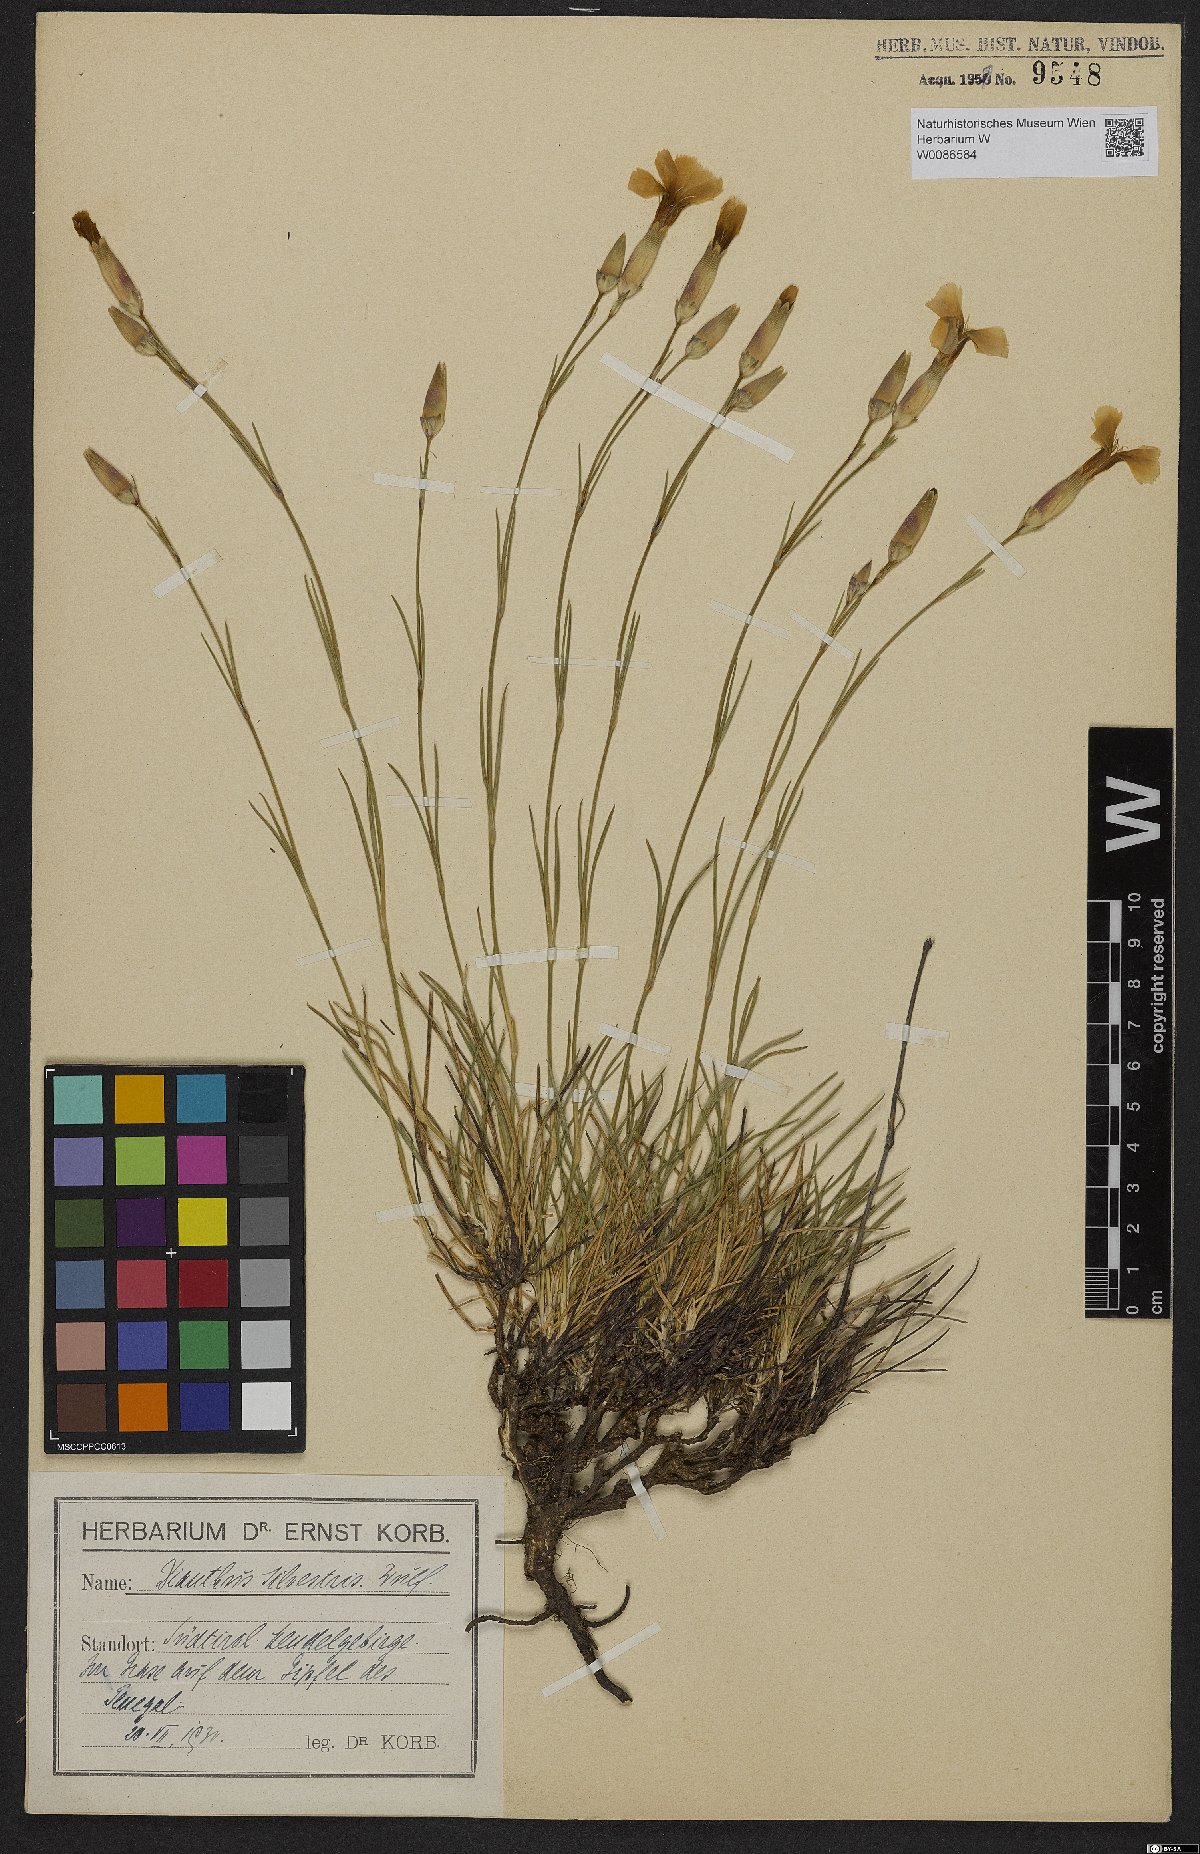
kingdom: Plantae
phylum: Tracheophyta
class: Magnoliopsida
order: Caryophyllales
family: Caryophyllaceae
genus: Dianthus
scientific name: Dianthus sylvestris
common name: Wood pink
